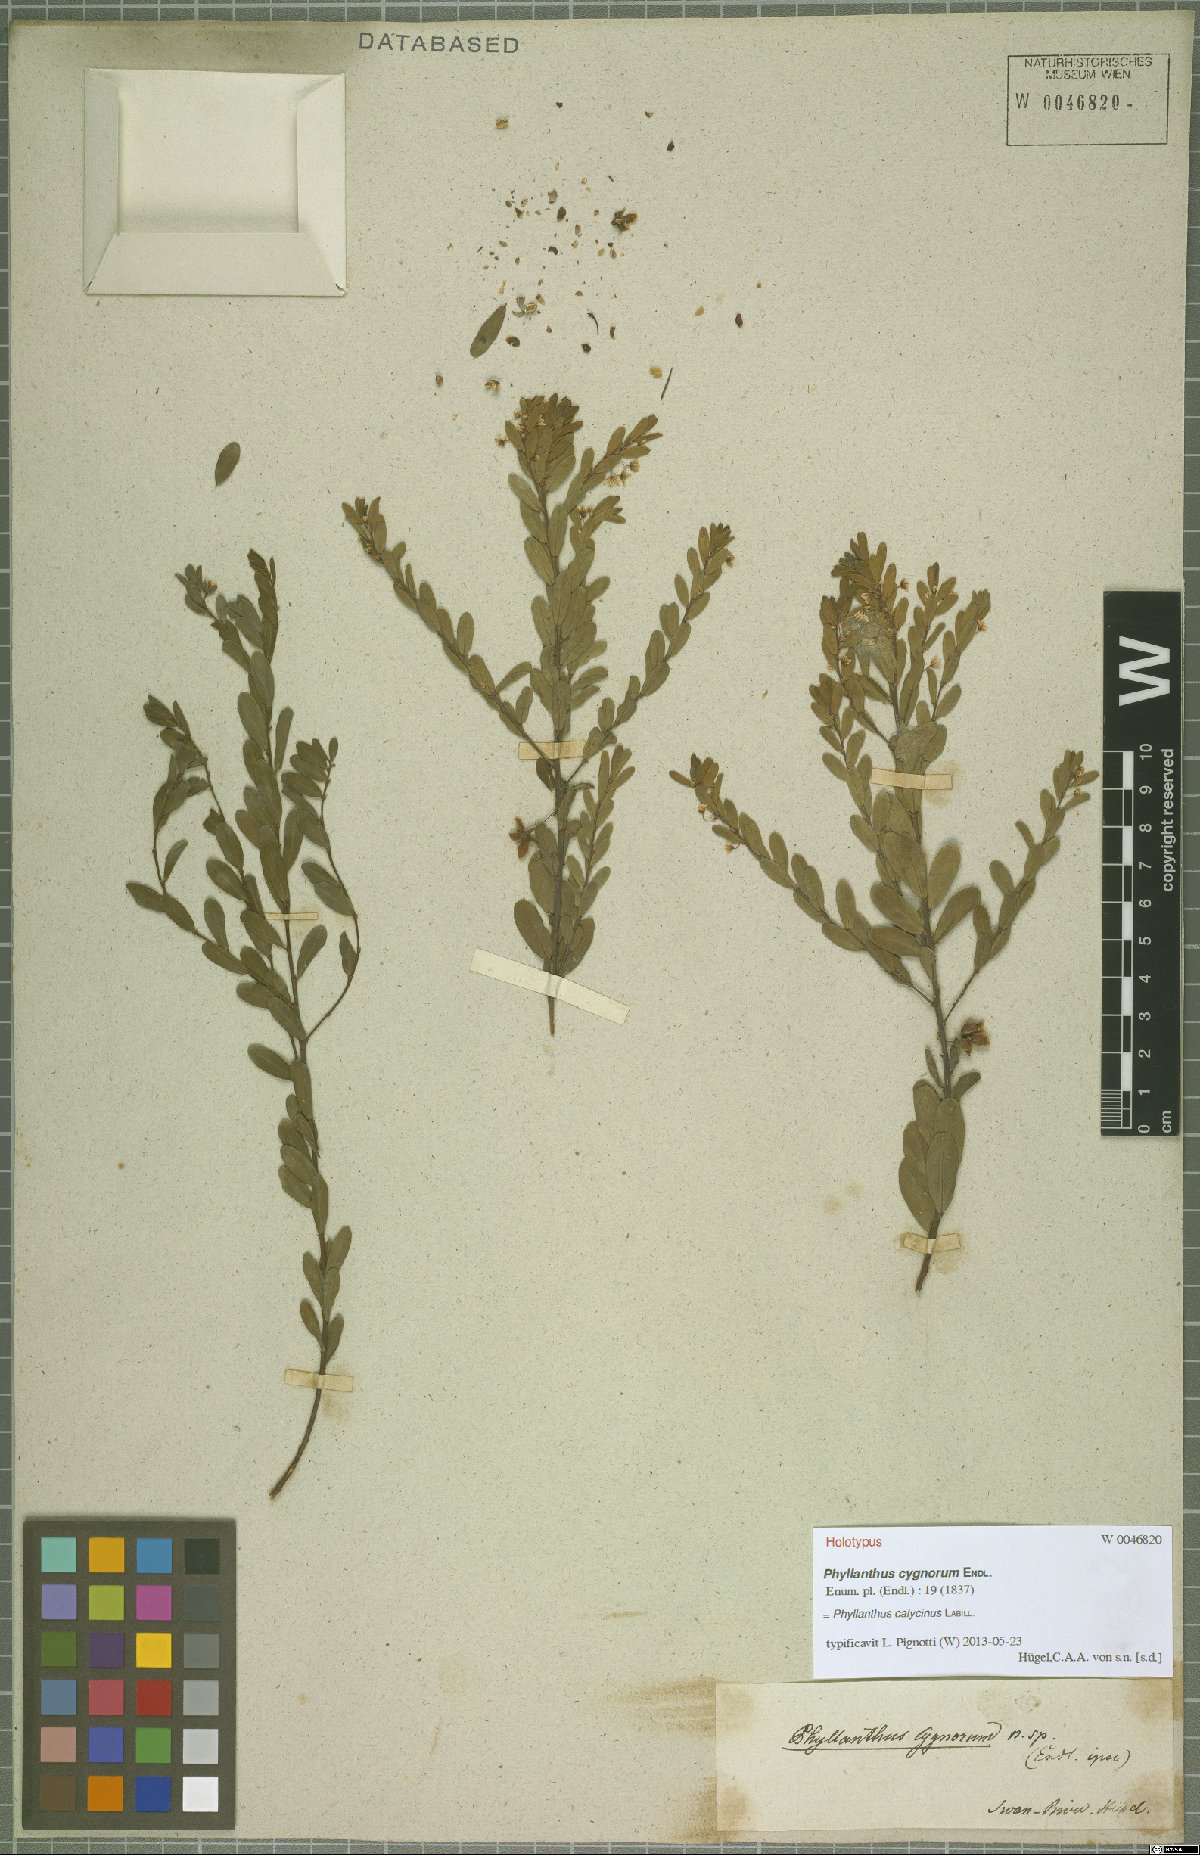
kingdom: Plantae
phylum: Tracheophyta
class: Magnoliopsida
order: Malpighiales
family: Phyllanthaceae
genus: Phyllanthus
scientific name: Phyllanthus calycinus
